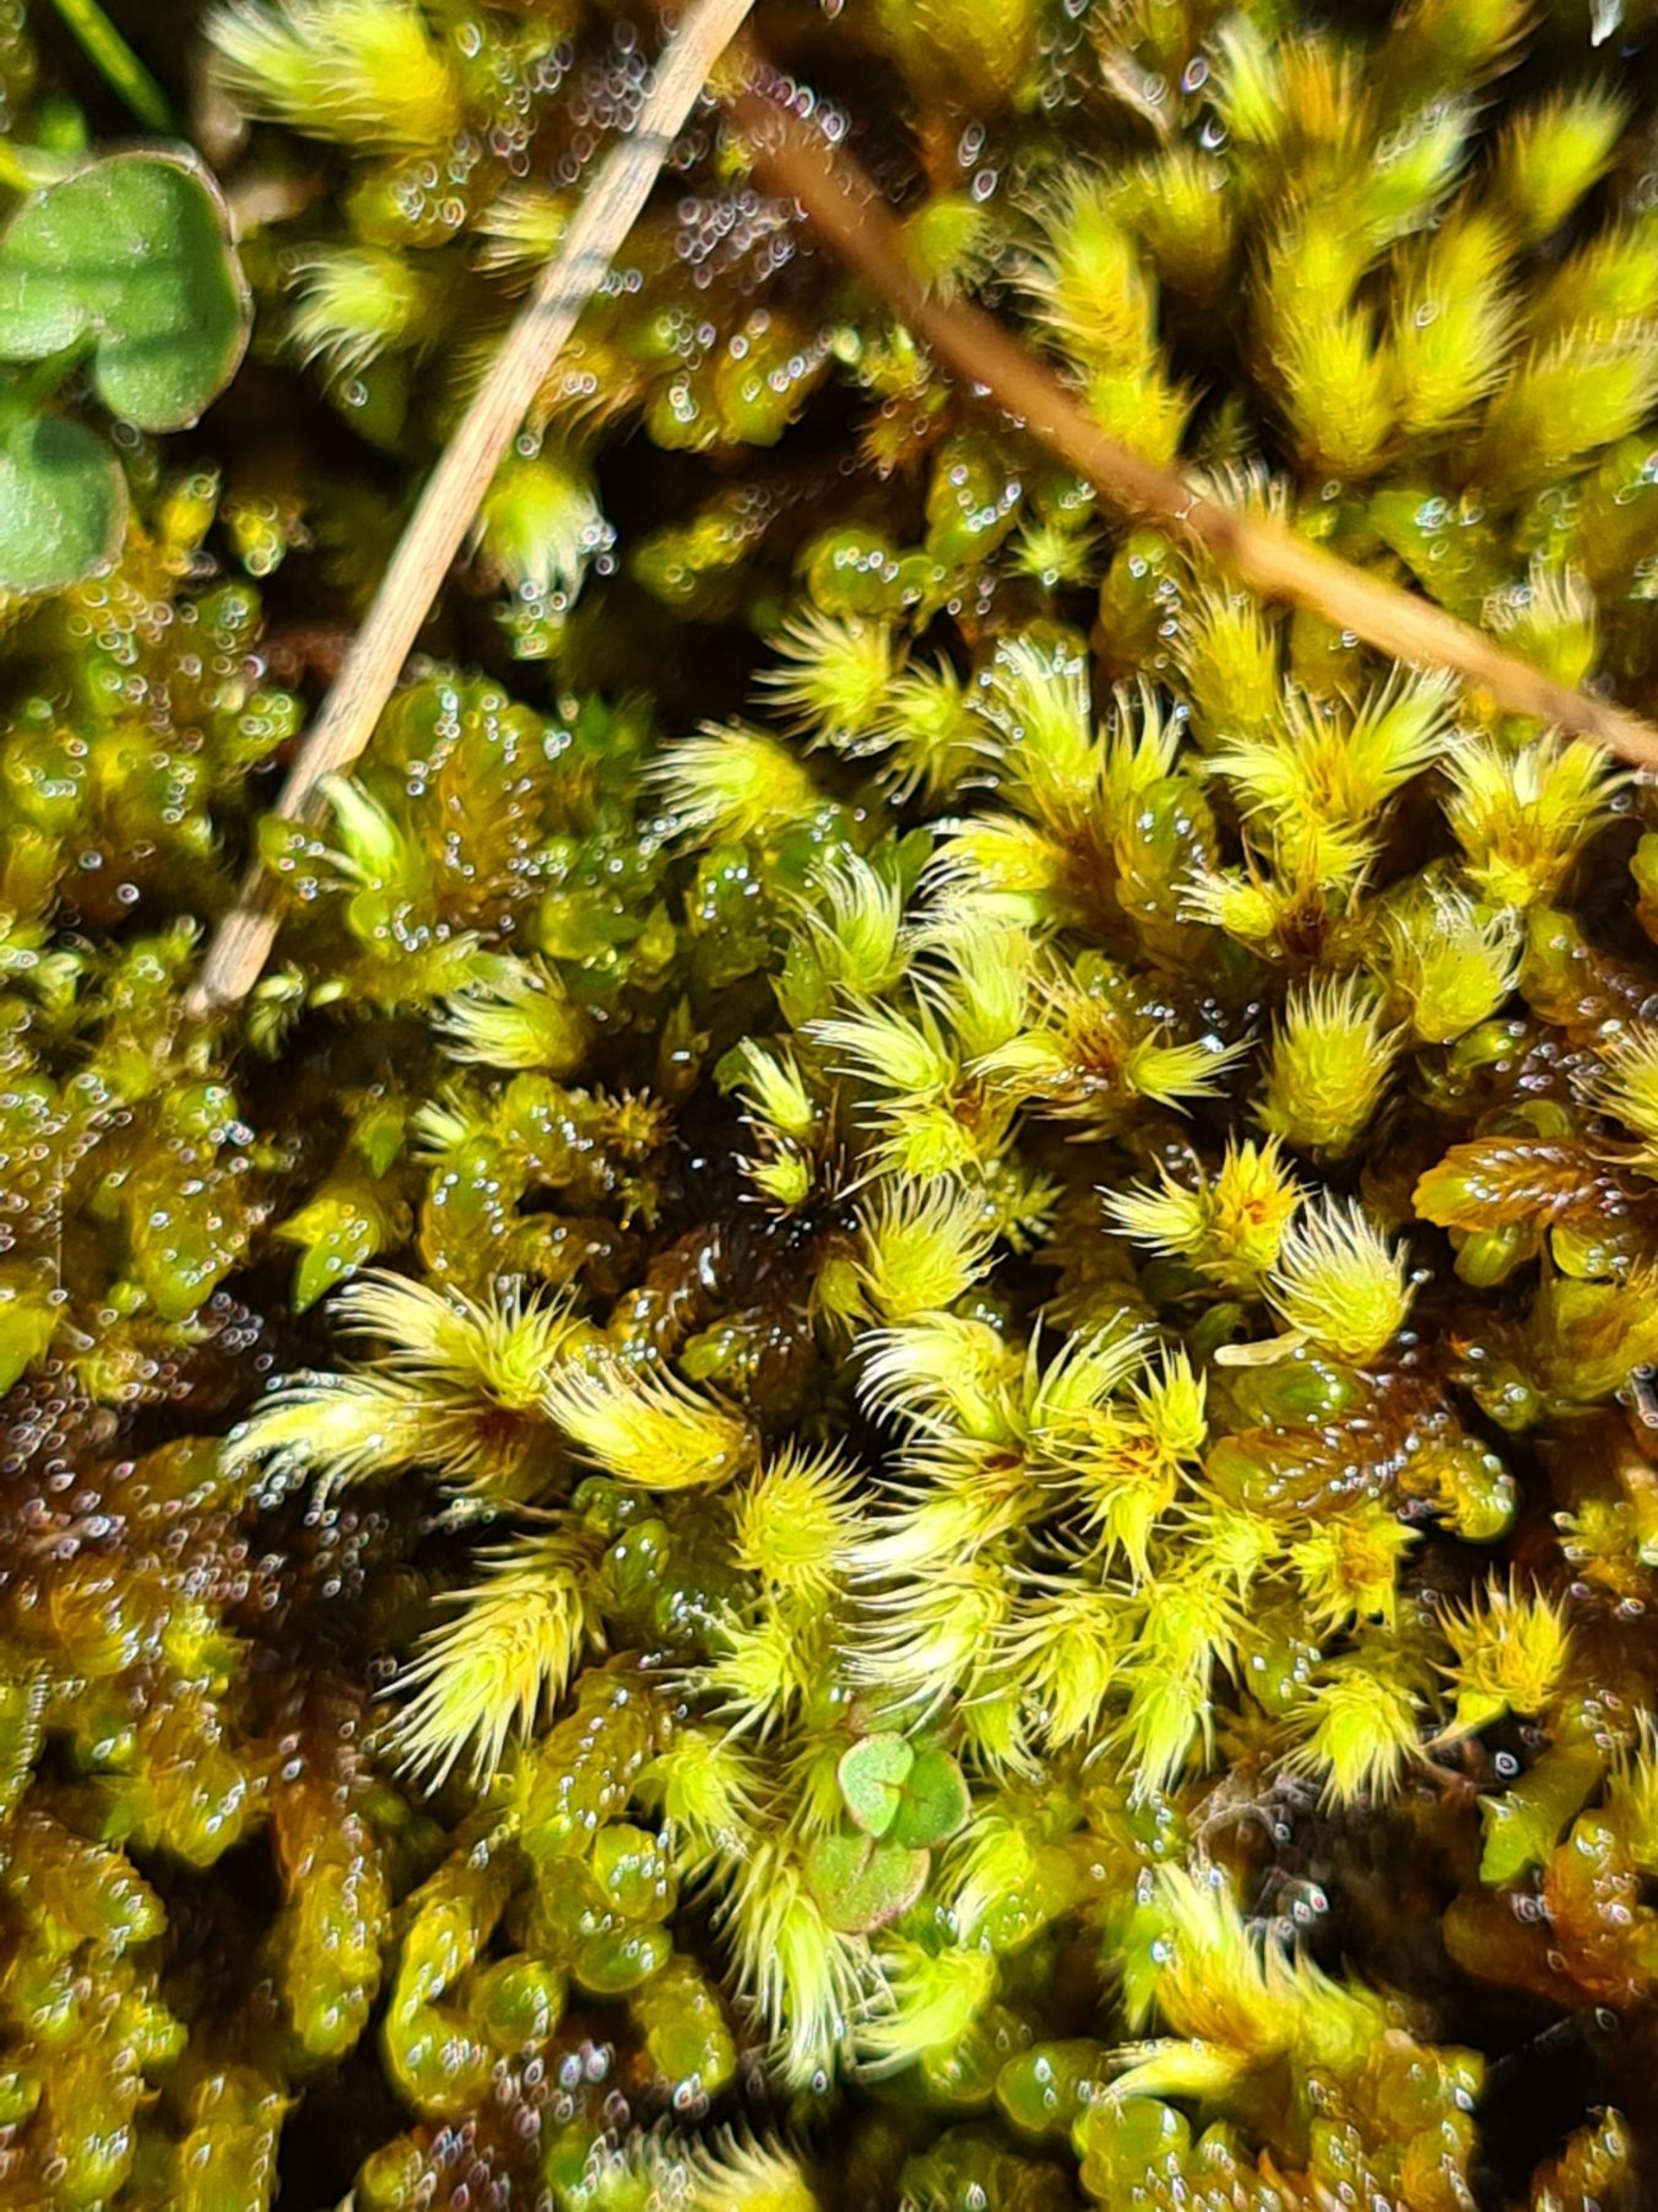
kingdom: Plantae
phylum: Bryophyta
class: Bryopsida
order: Bartramiales
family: Bartramiaceae
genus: Philonotis
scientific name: Philonotis calcarea
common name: Kalk-vandtuemos
